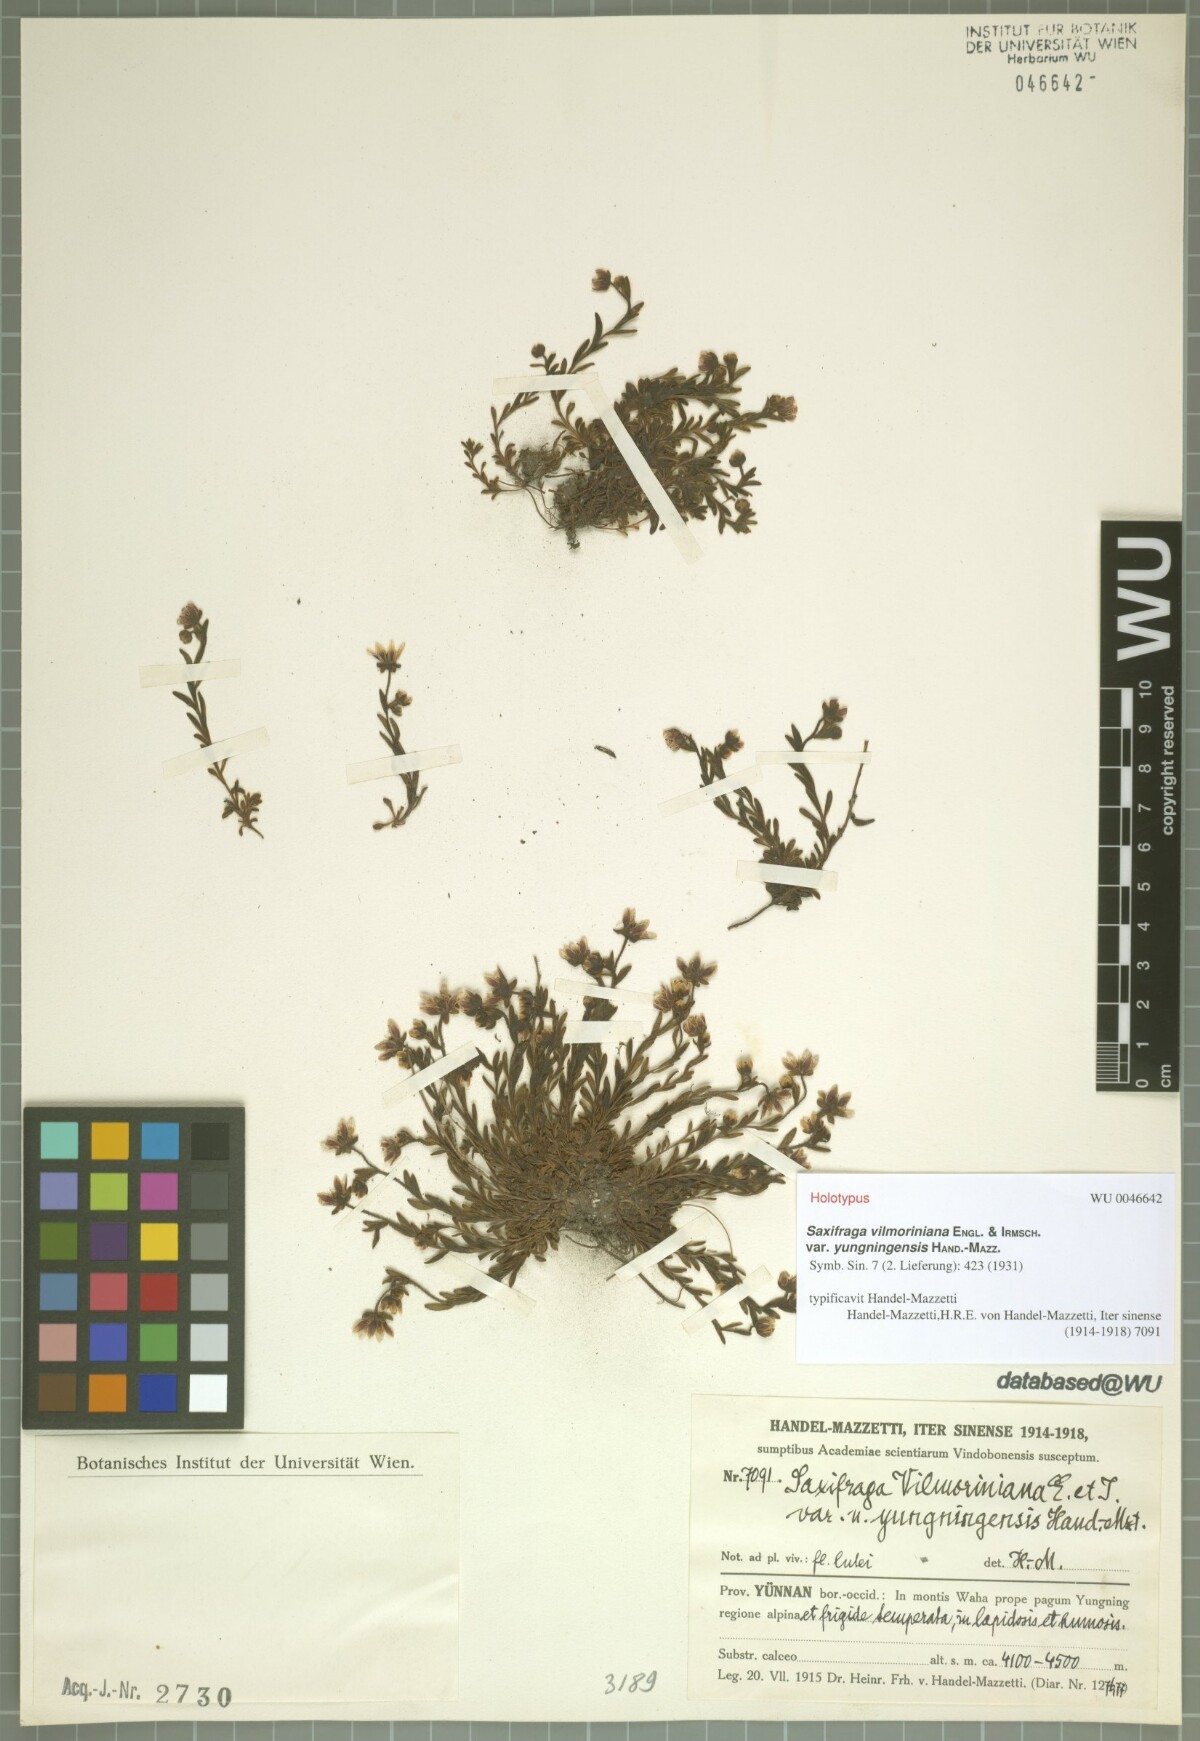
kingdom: Plantae
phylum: Tracheophyta
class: Magnoliopsida
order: Saxifragales
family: Saxifragaceae
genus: Saxifraga
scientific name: Saxifraga glacialis
